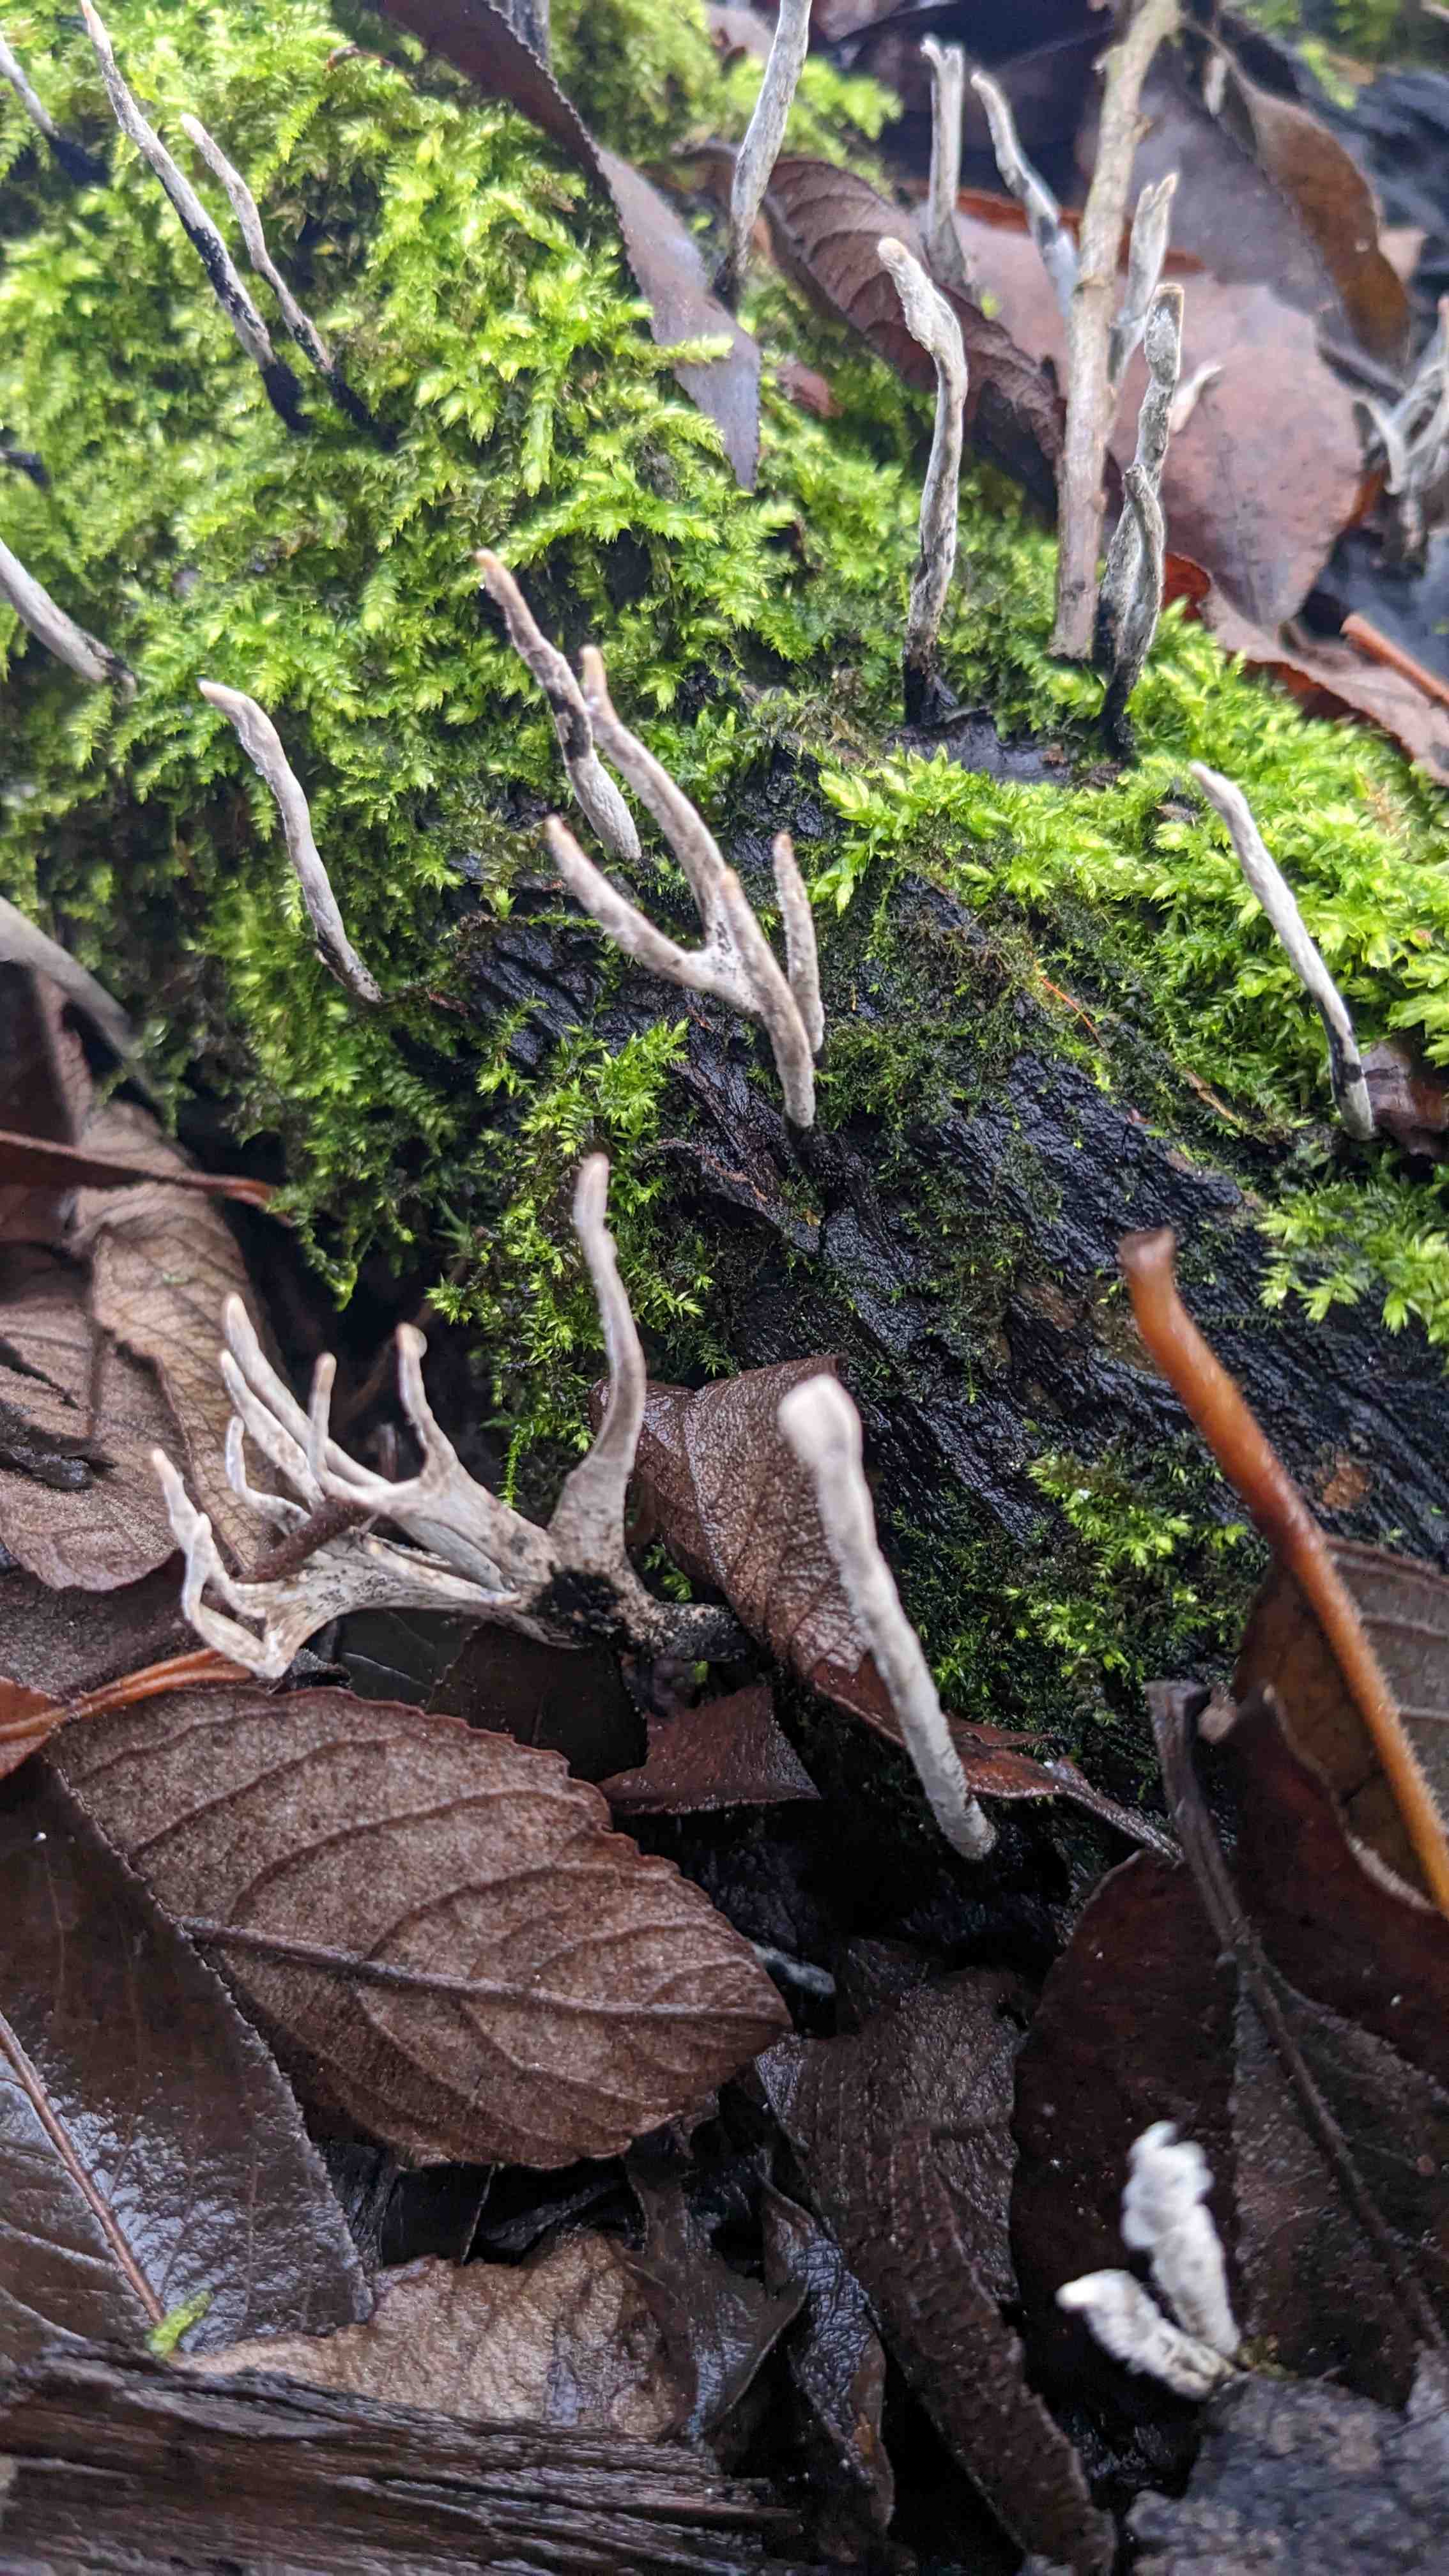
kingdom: Fungi
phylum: Ascomycota
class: Sordariomycetes
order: Xylariales
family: Xylariaceae
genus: Xylaria
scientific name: Xylaria hypoxylon
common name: grenet stødsvamp
